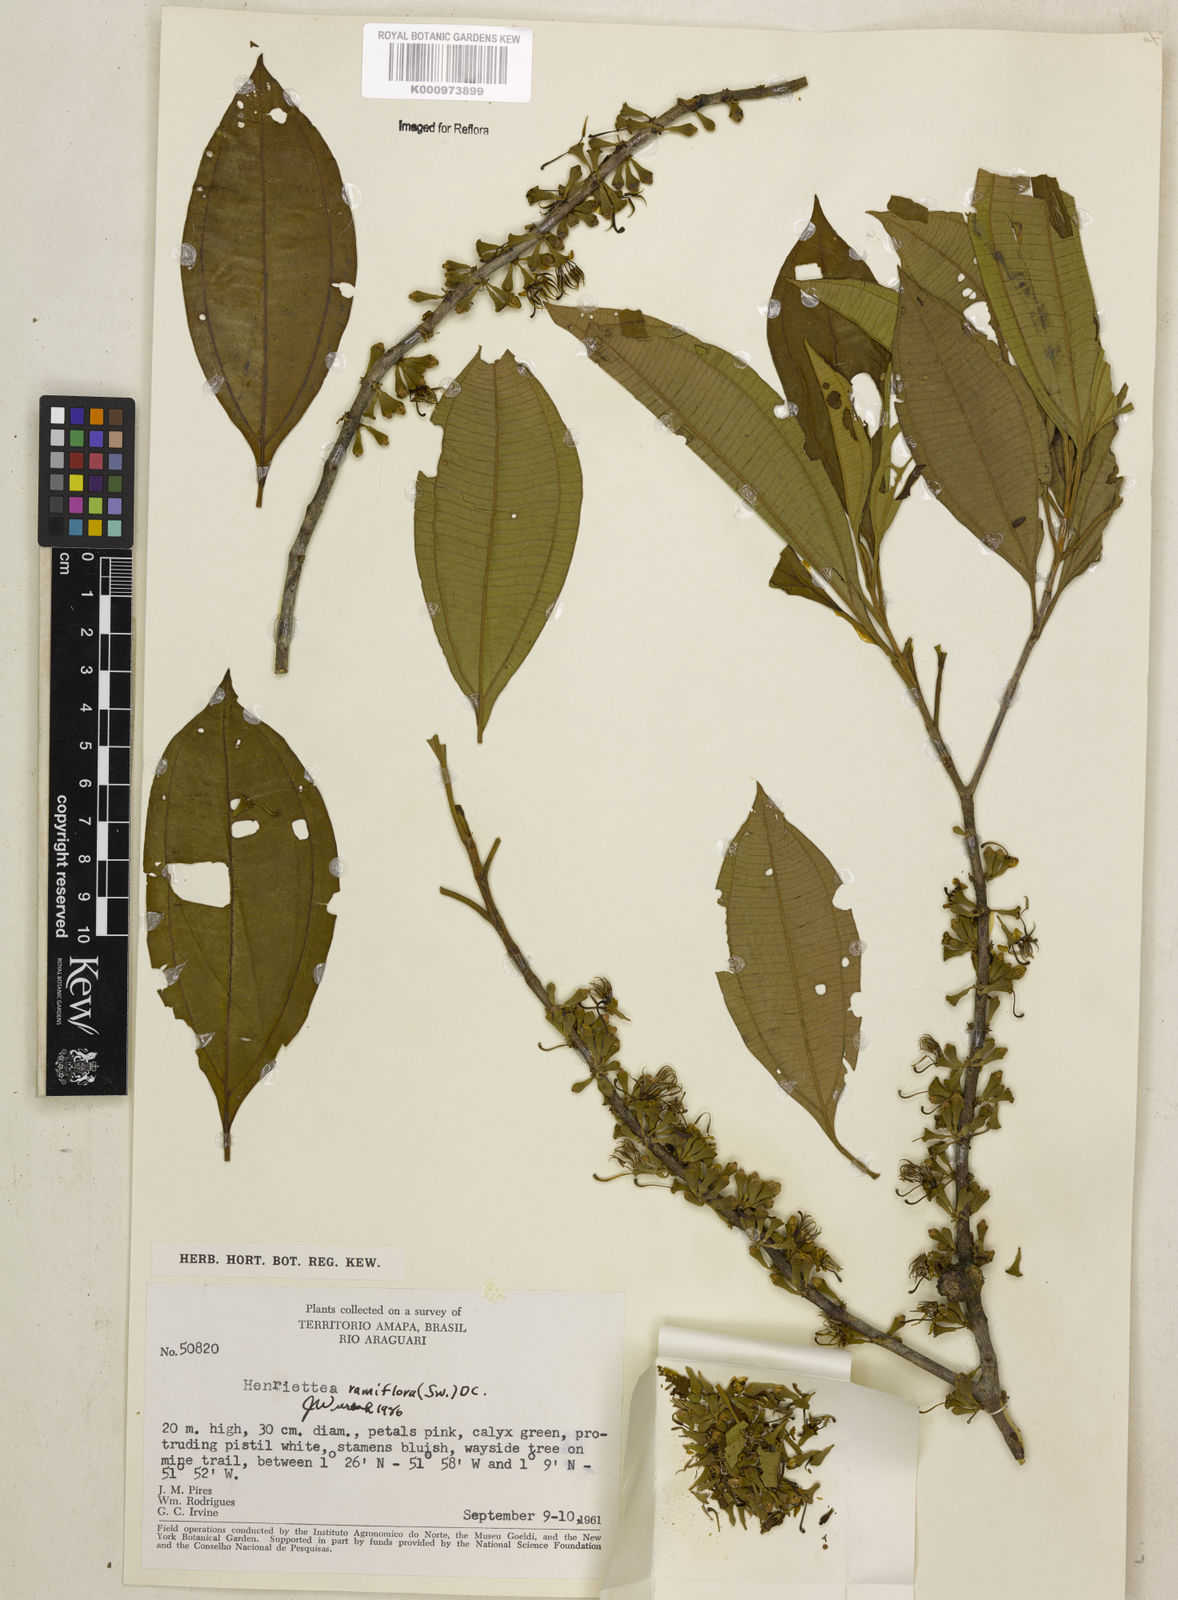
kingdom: Plantae
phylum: Tracheophyta
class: Magnoliopsida
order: Myrtales
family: Melastomataceae
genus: Henriettea
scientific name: Henriettea ramiflora
